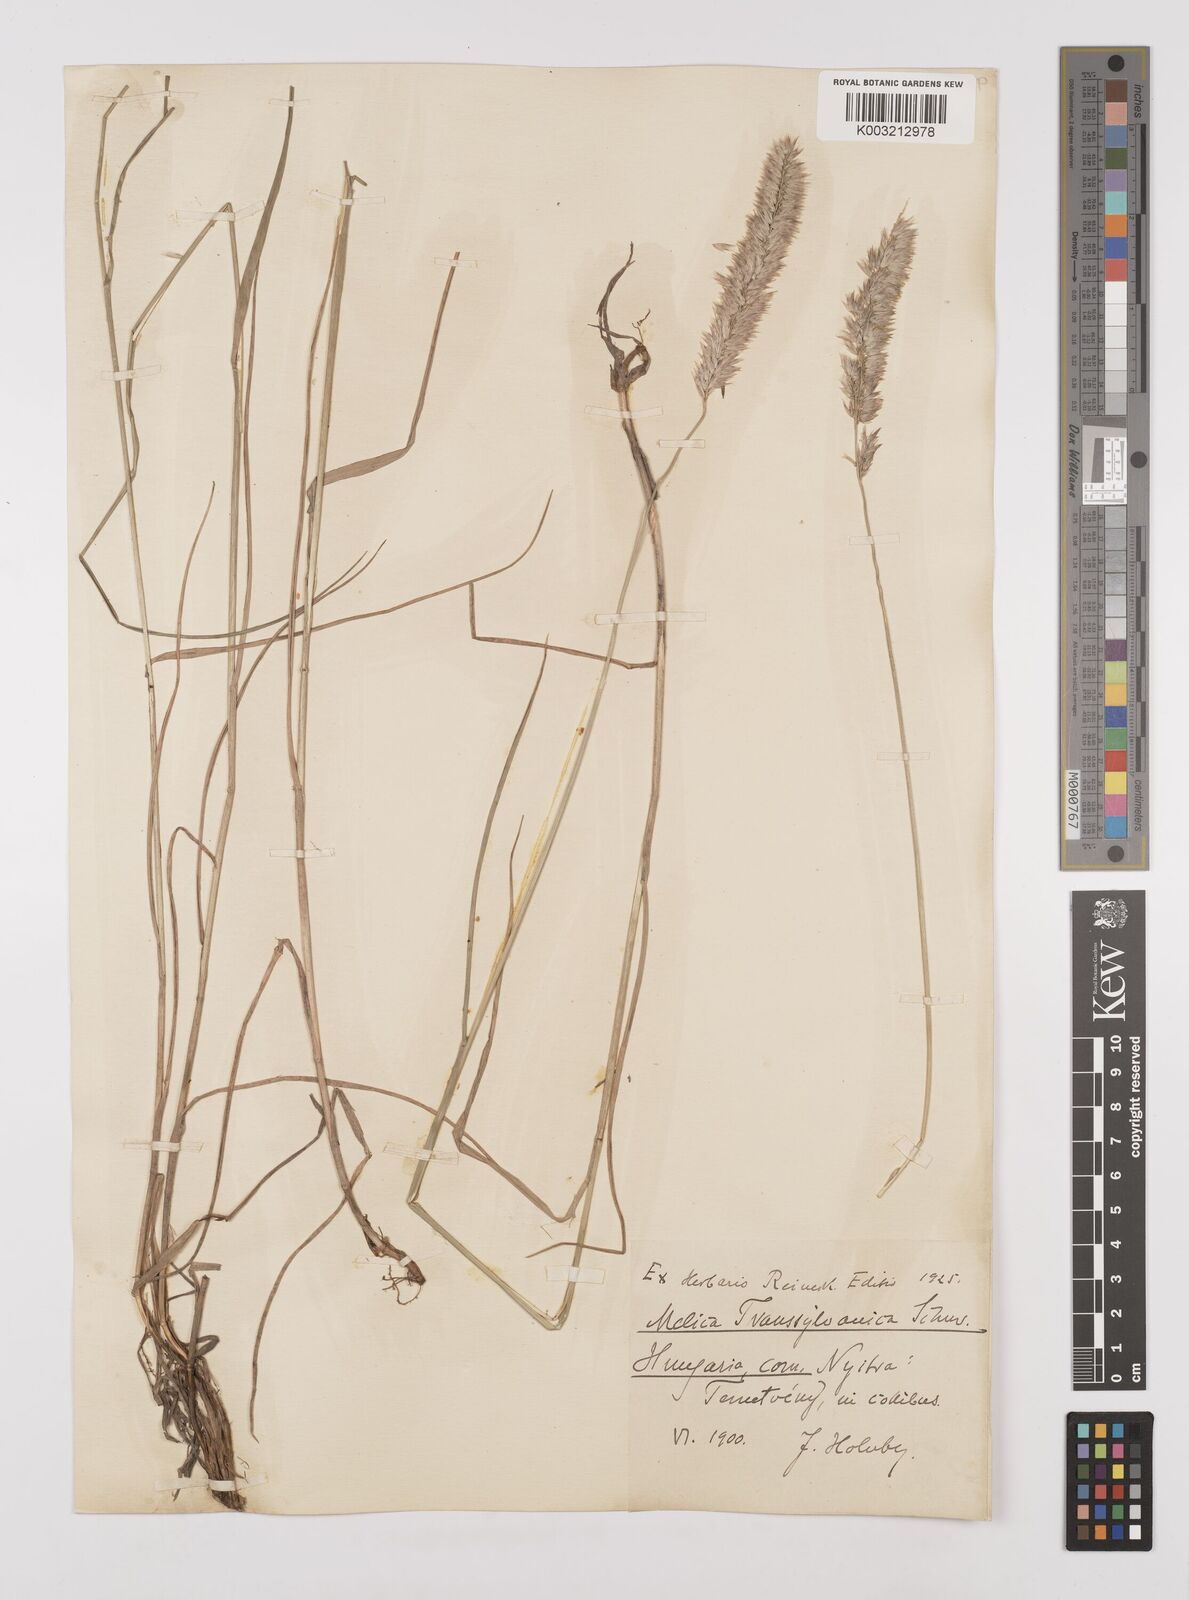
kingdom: Plantae
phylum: Tracheophyta
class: Liliopsida
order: Poales
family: Poaceae
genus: Melica
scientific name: Melica transsilvanica
